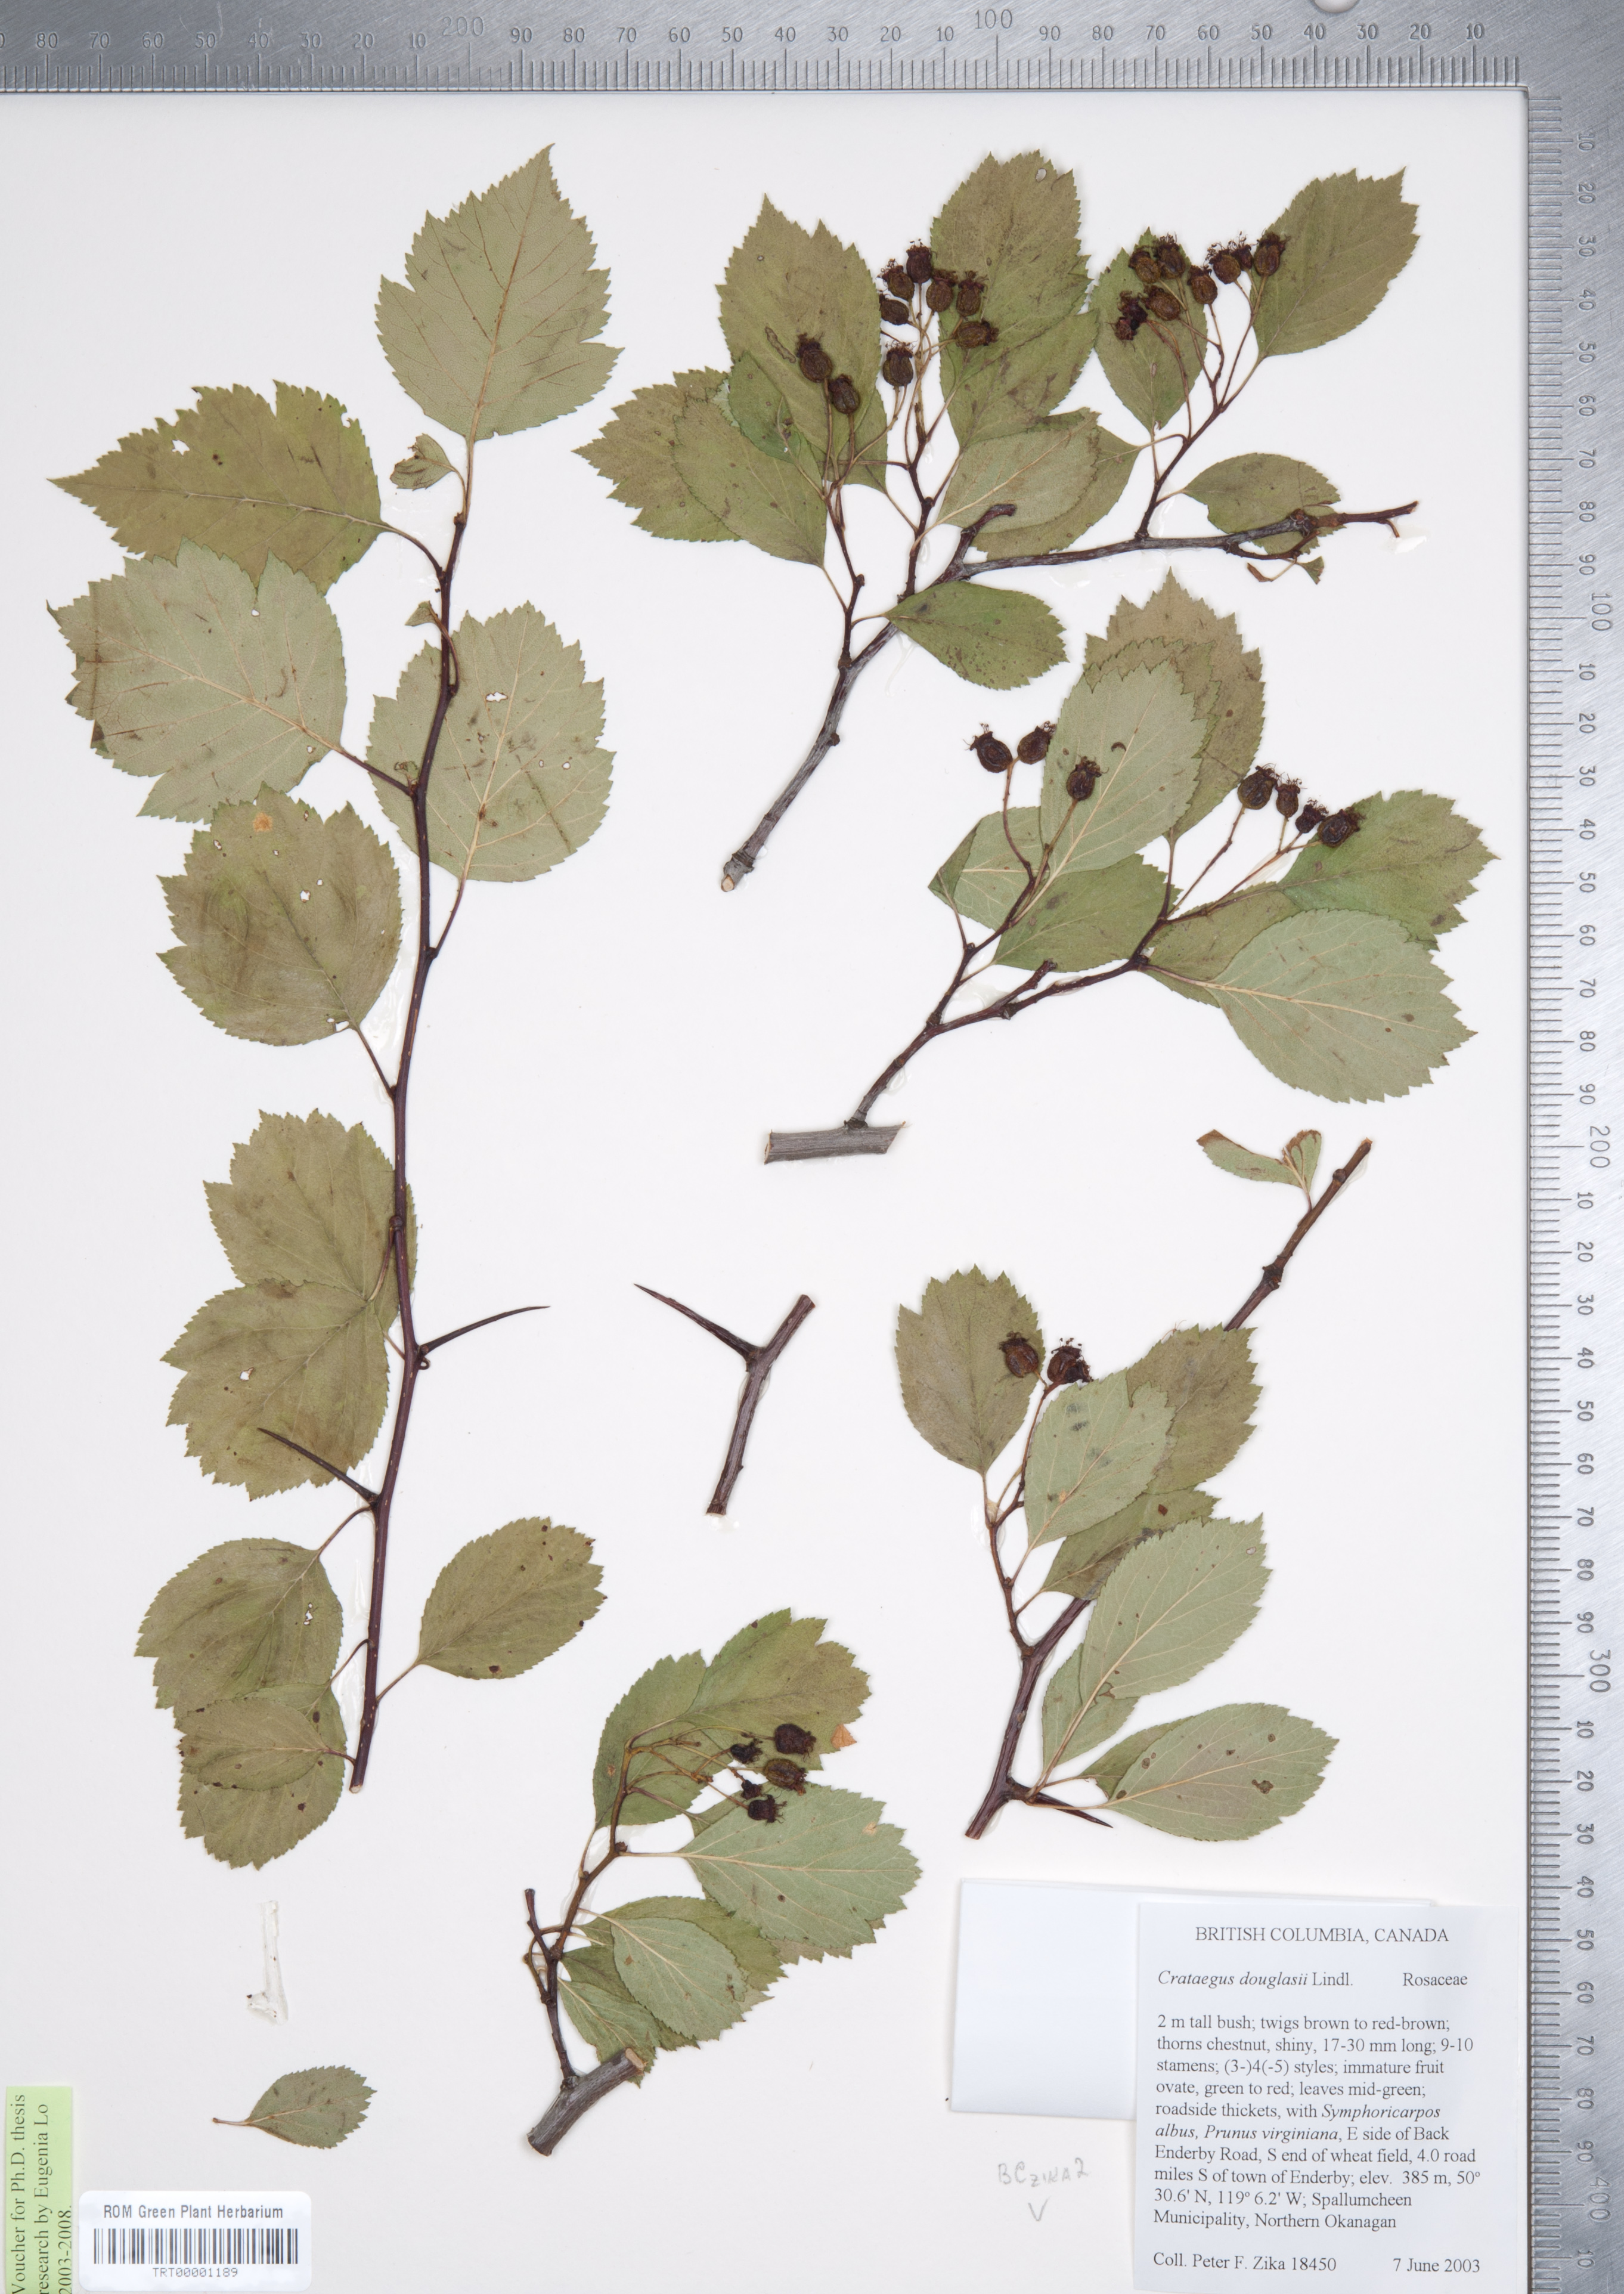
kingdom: Plantae
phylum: Tracheophyta
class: Magnoliopsida
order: Rosales
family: Rosaceae
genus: Crataegus
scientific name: Crataegus douglasii
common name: Black hawthorn
